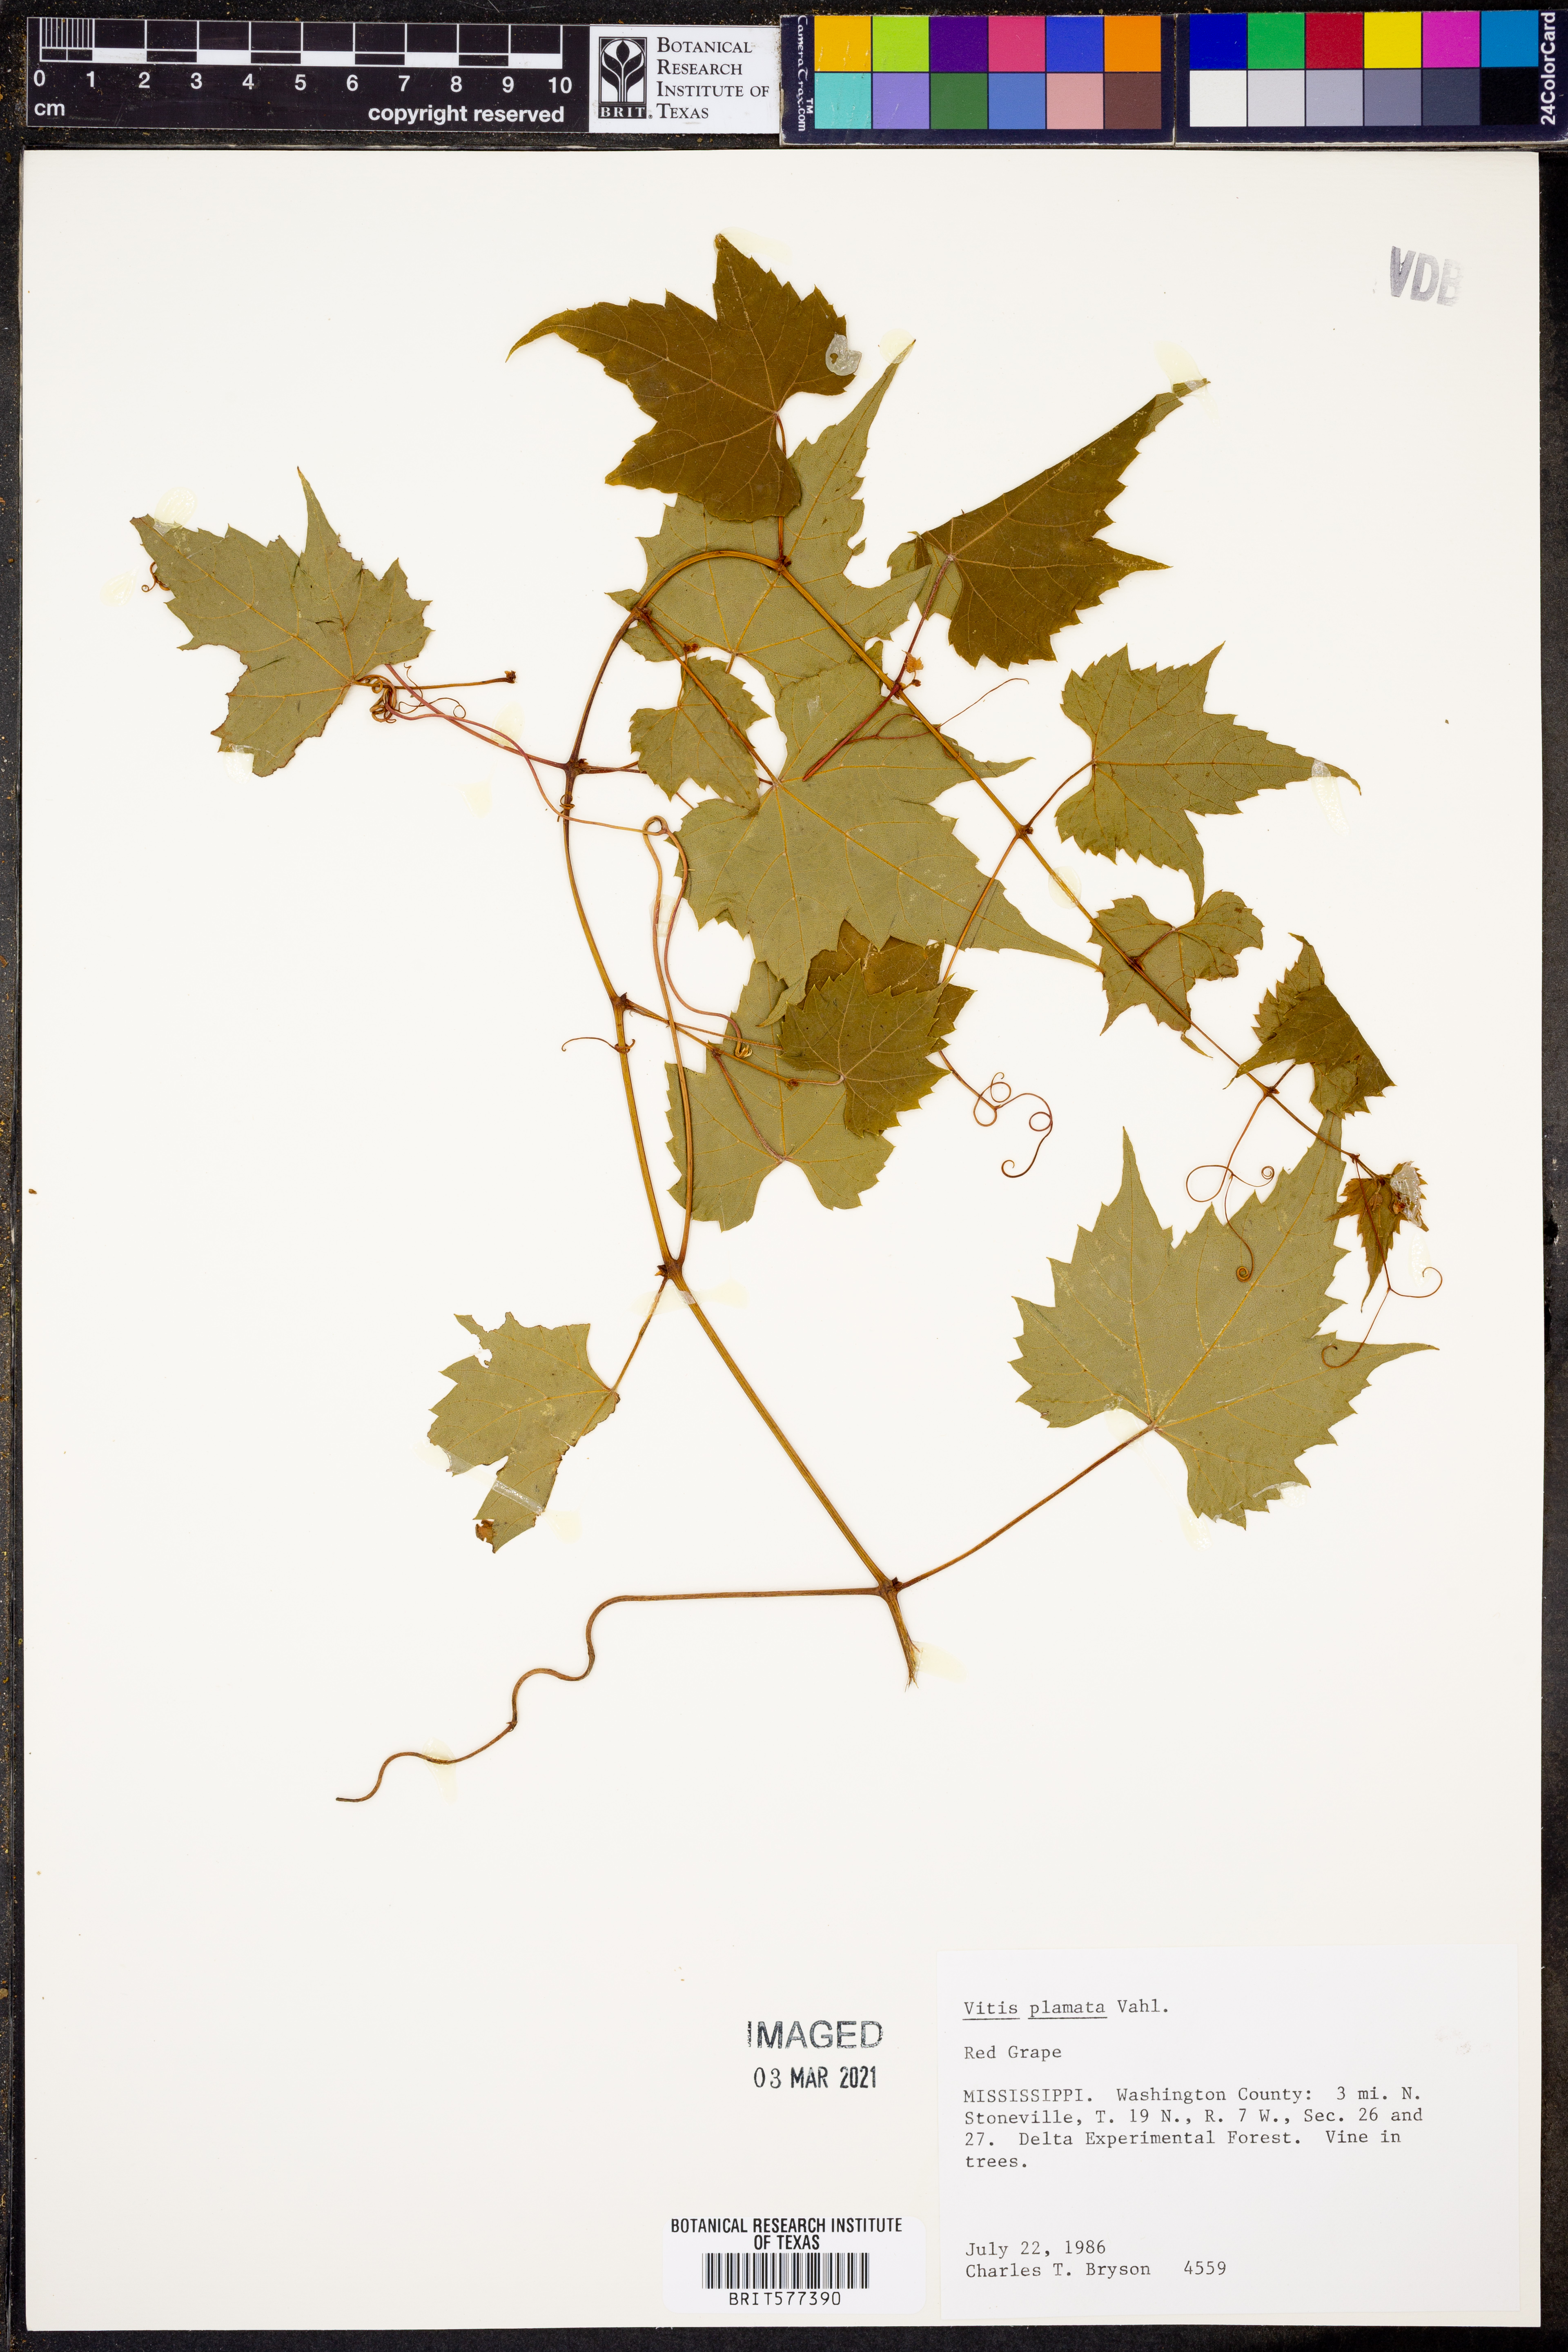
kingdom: Plantae
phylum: Tracheophyta
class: Magnoliopsida
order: Vitales
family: Vitaceae
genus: Vitis
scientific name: Vitis palmata
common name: Catbird grape
